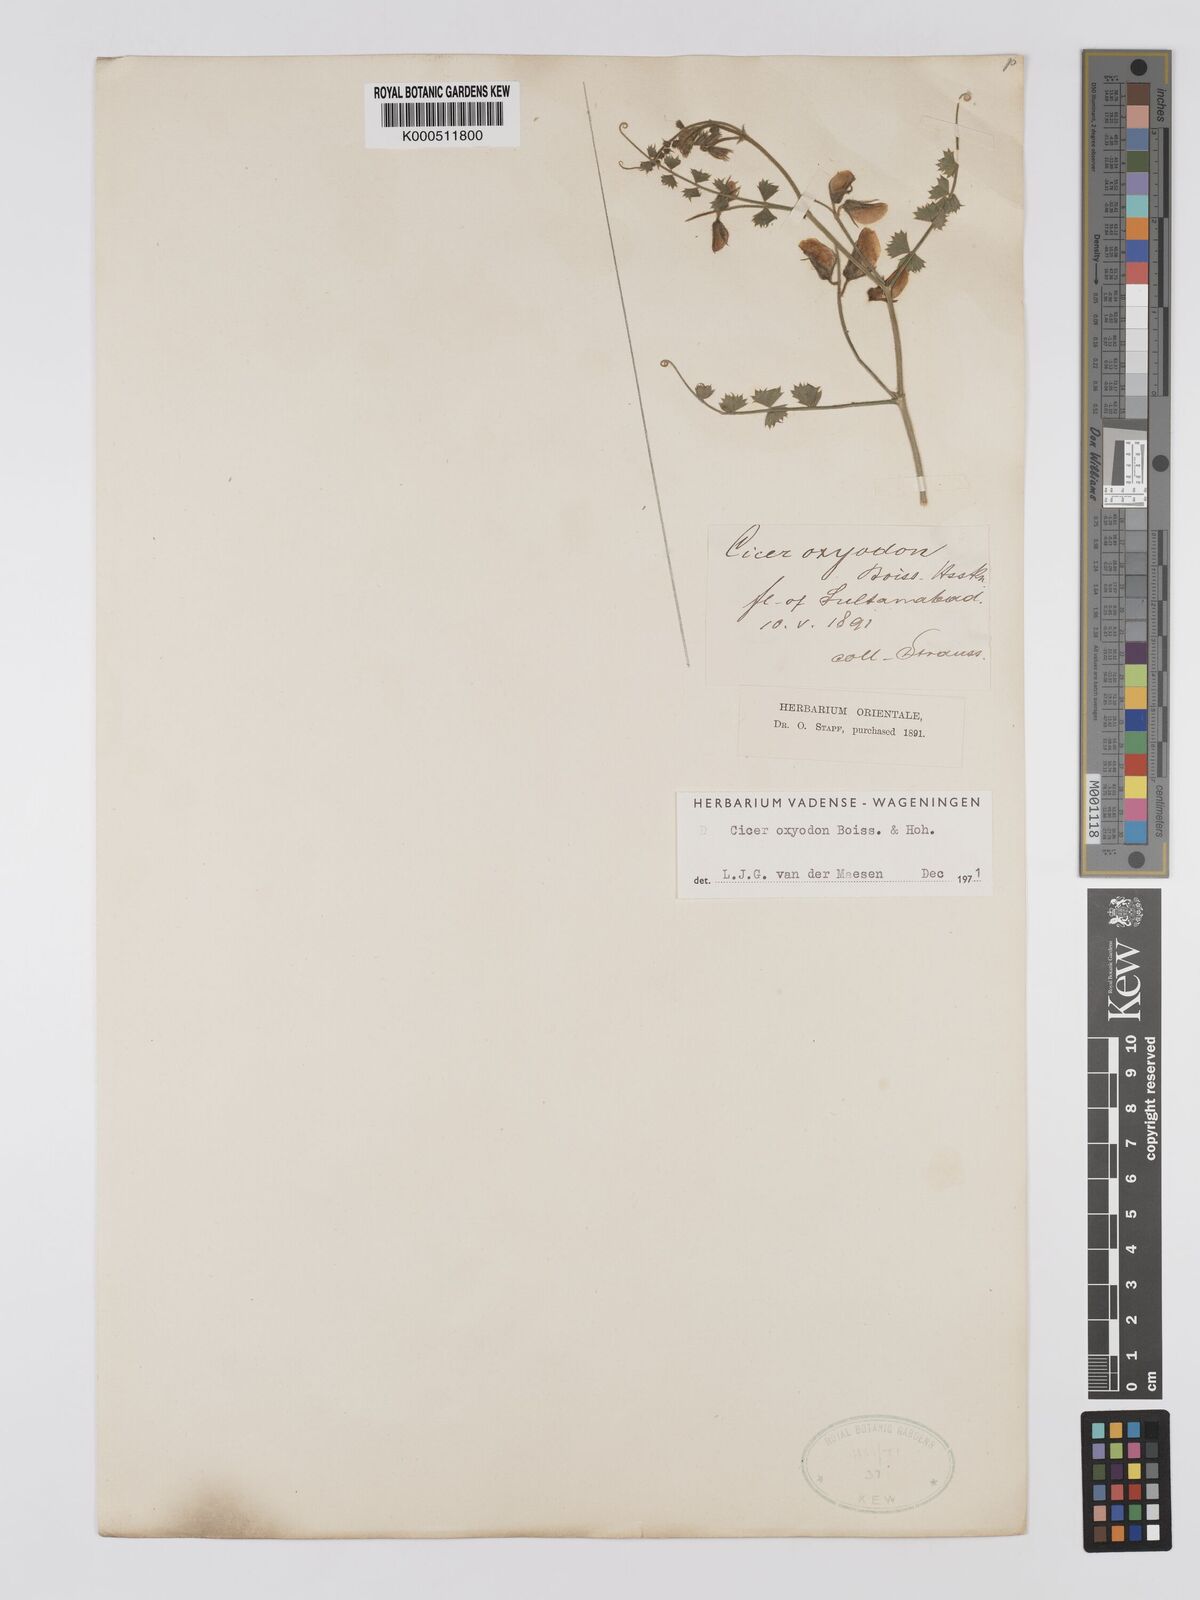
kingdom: Plantae
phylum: Tracheophyta
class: Magnoliopsida
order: Fabales
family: Fabaceae
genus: Cicer
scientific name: Cicer oxyodon
